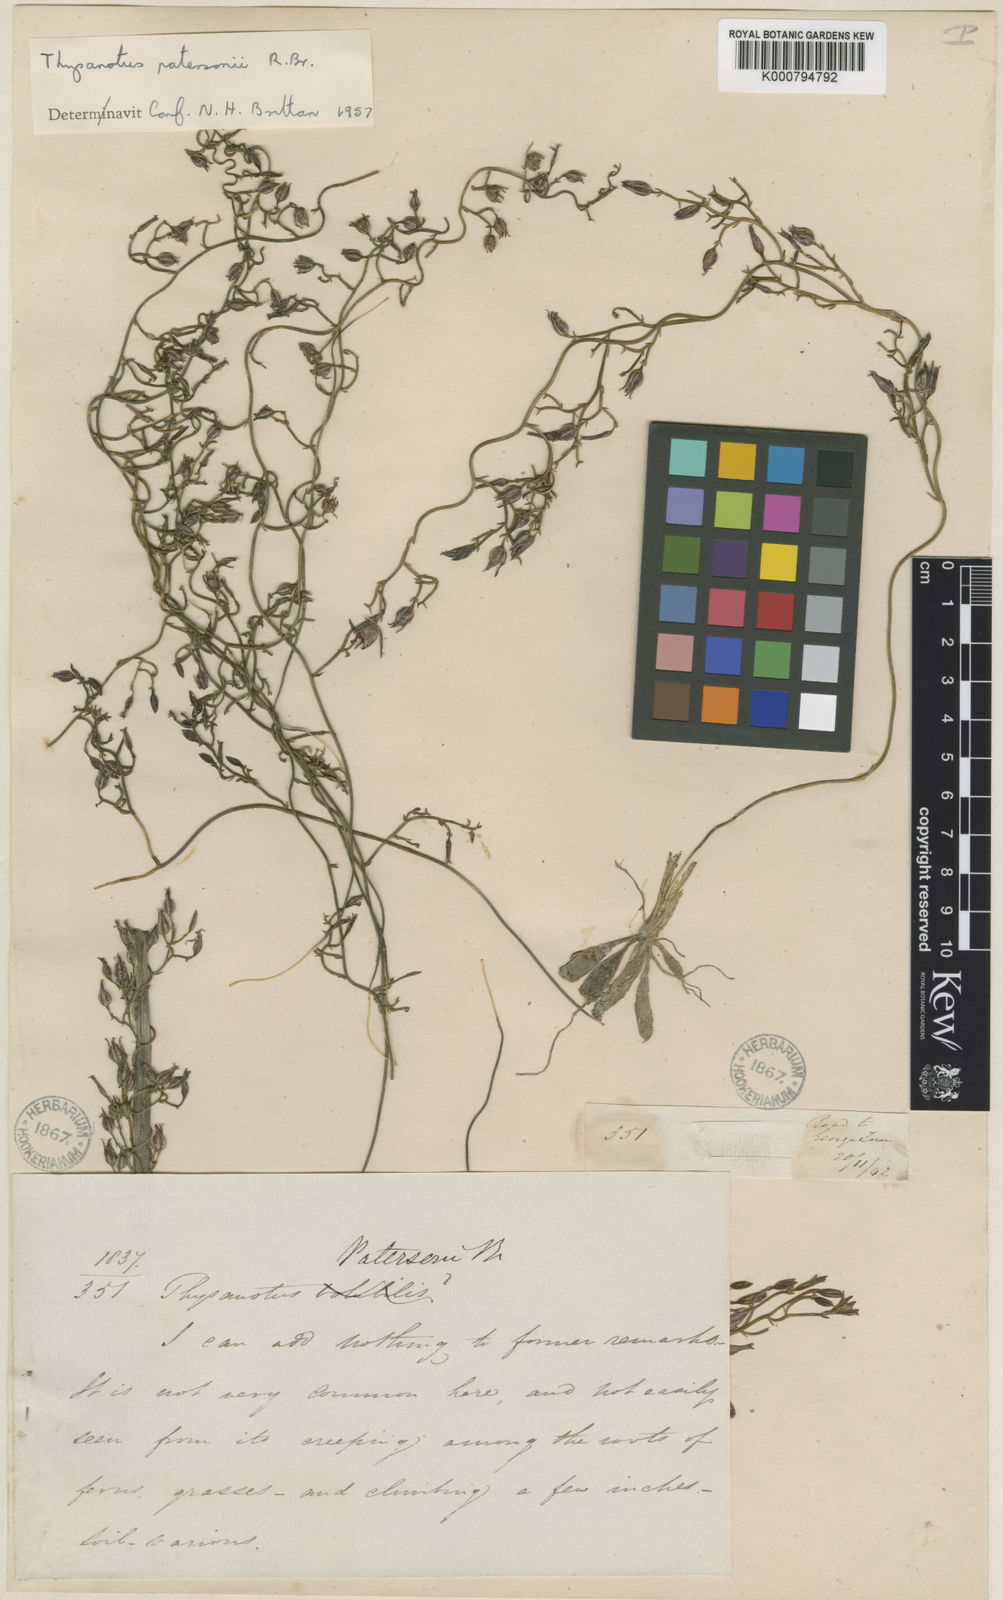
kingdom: Plantae
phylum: Tracheophyta
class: Liliopsida
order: Asparagales
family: Asparagaceae
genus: Thysanotus
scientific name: Thysanotus patersonii
